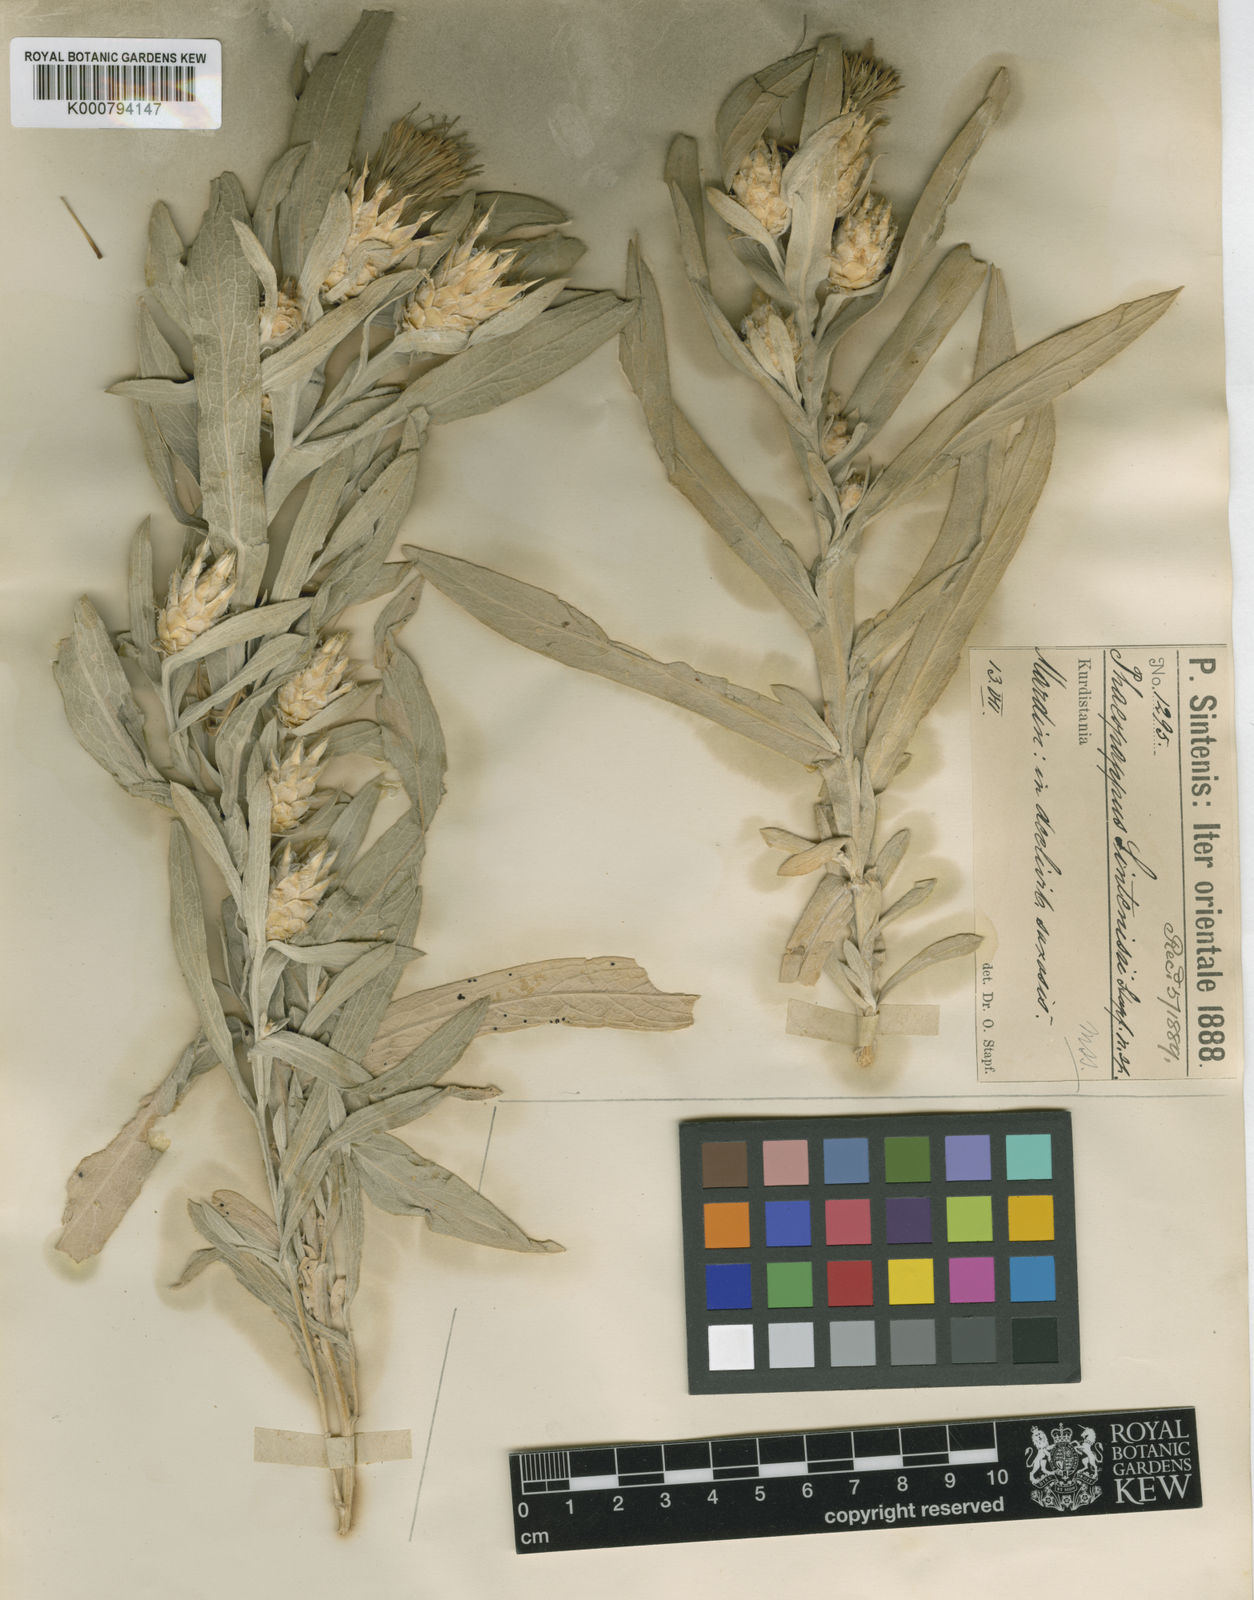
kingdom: Plantae
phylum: Tracheophyta
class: Magnoliopsida
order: Asterales
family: Asteraceae
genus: Centaurea
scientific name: Centaurea stapfiana
